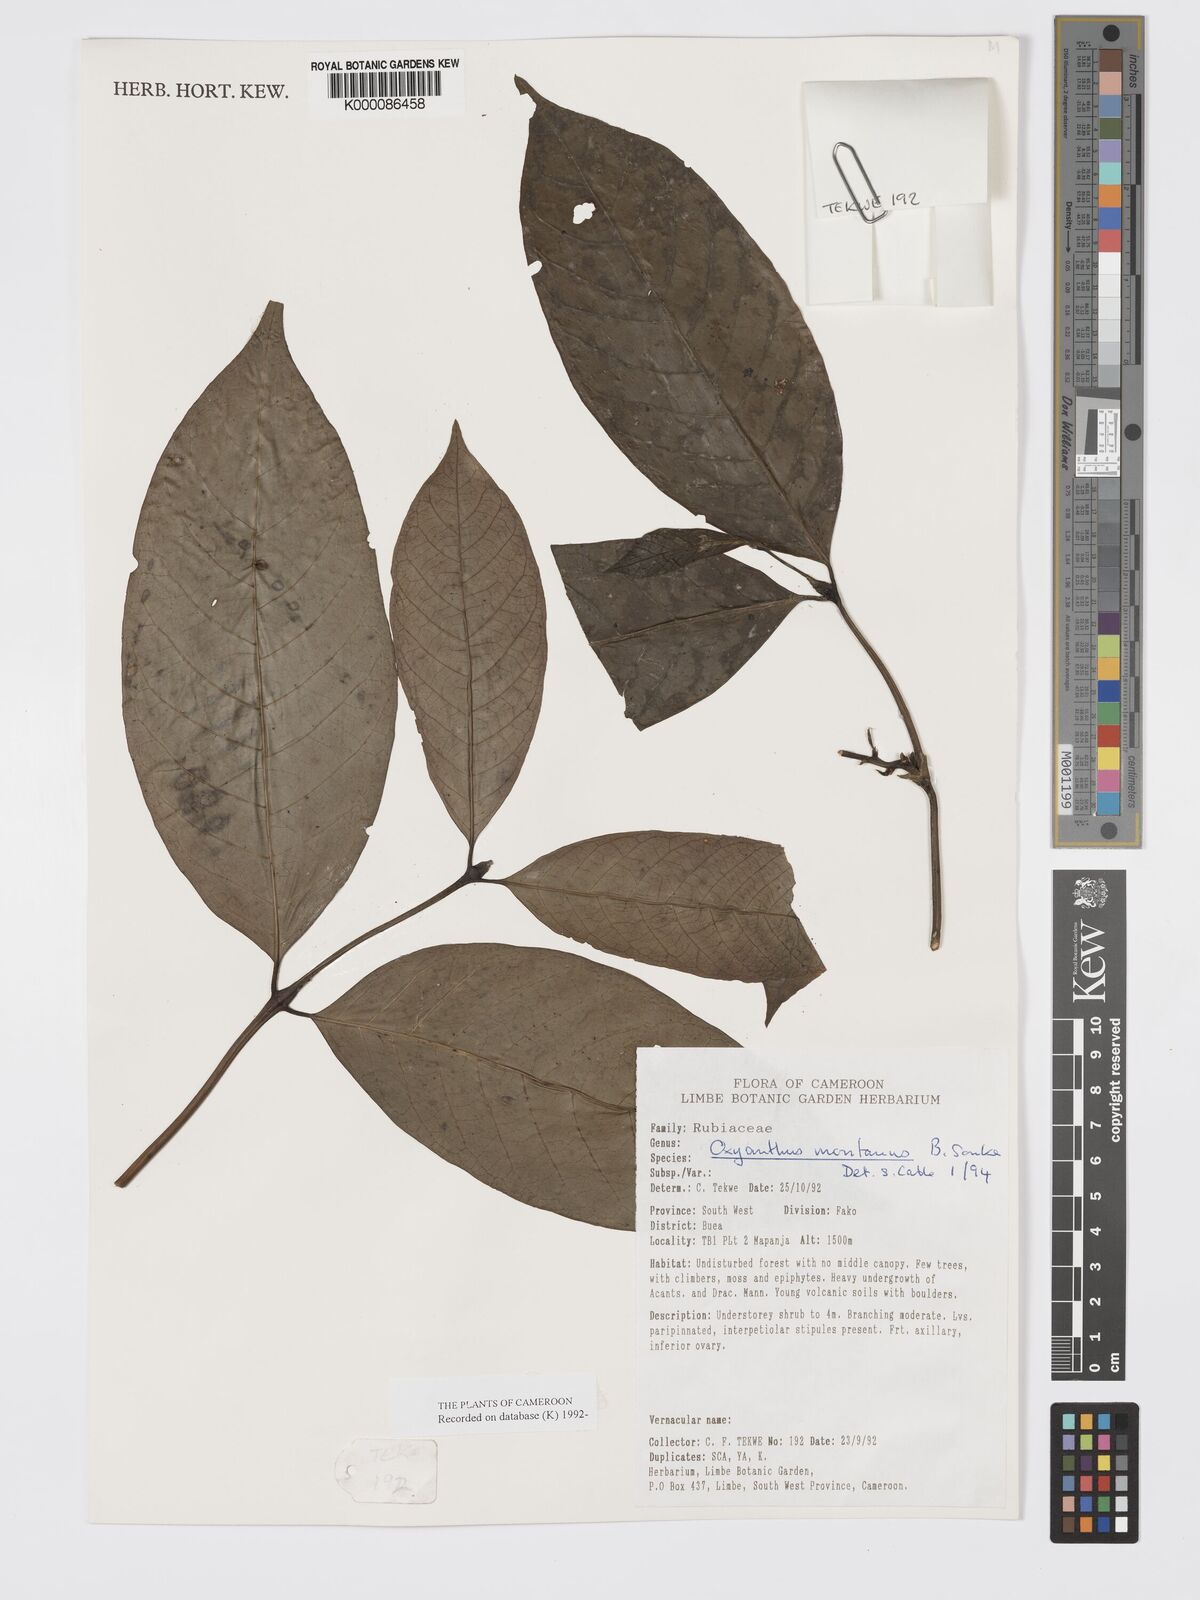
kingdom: Plantae
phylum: Tracheophyta
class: Magnoliopsida
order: Gentianales
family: Rubiaceae
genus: Oxyanthus
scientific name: Oxyanthus
